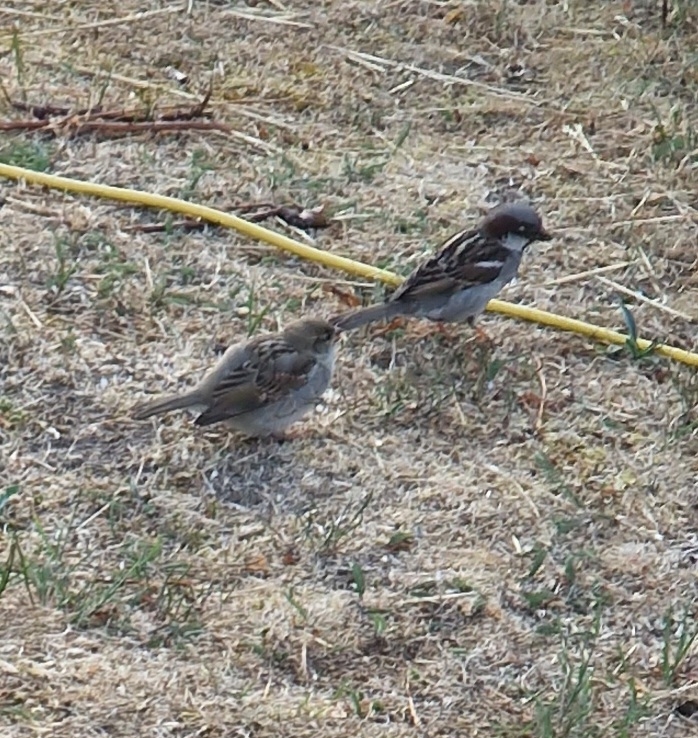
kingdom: Animalia
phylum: Chordata
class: Aves
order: Passeriformes
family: Passeridae
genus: Passer
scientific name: Passer domesticus
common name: Gråspurv
